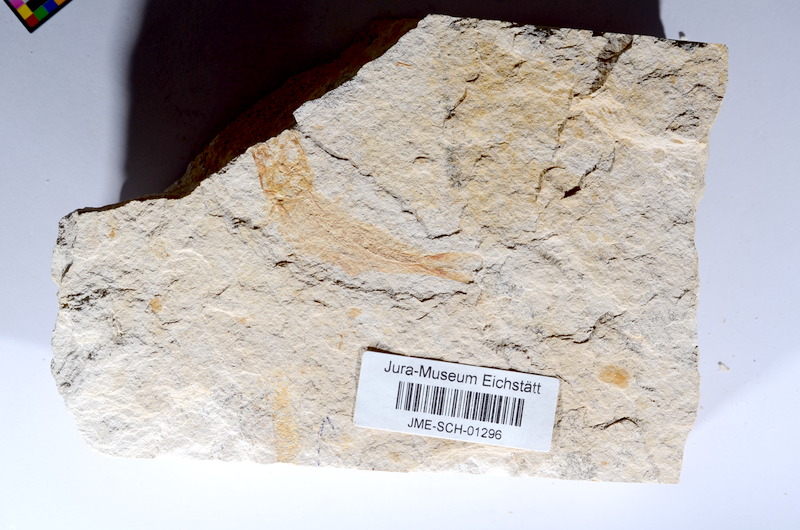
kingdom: Animalia
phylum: Chordata
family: Ascalaboidae
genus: Tharsis
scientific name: Tharsis dubius
